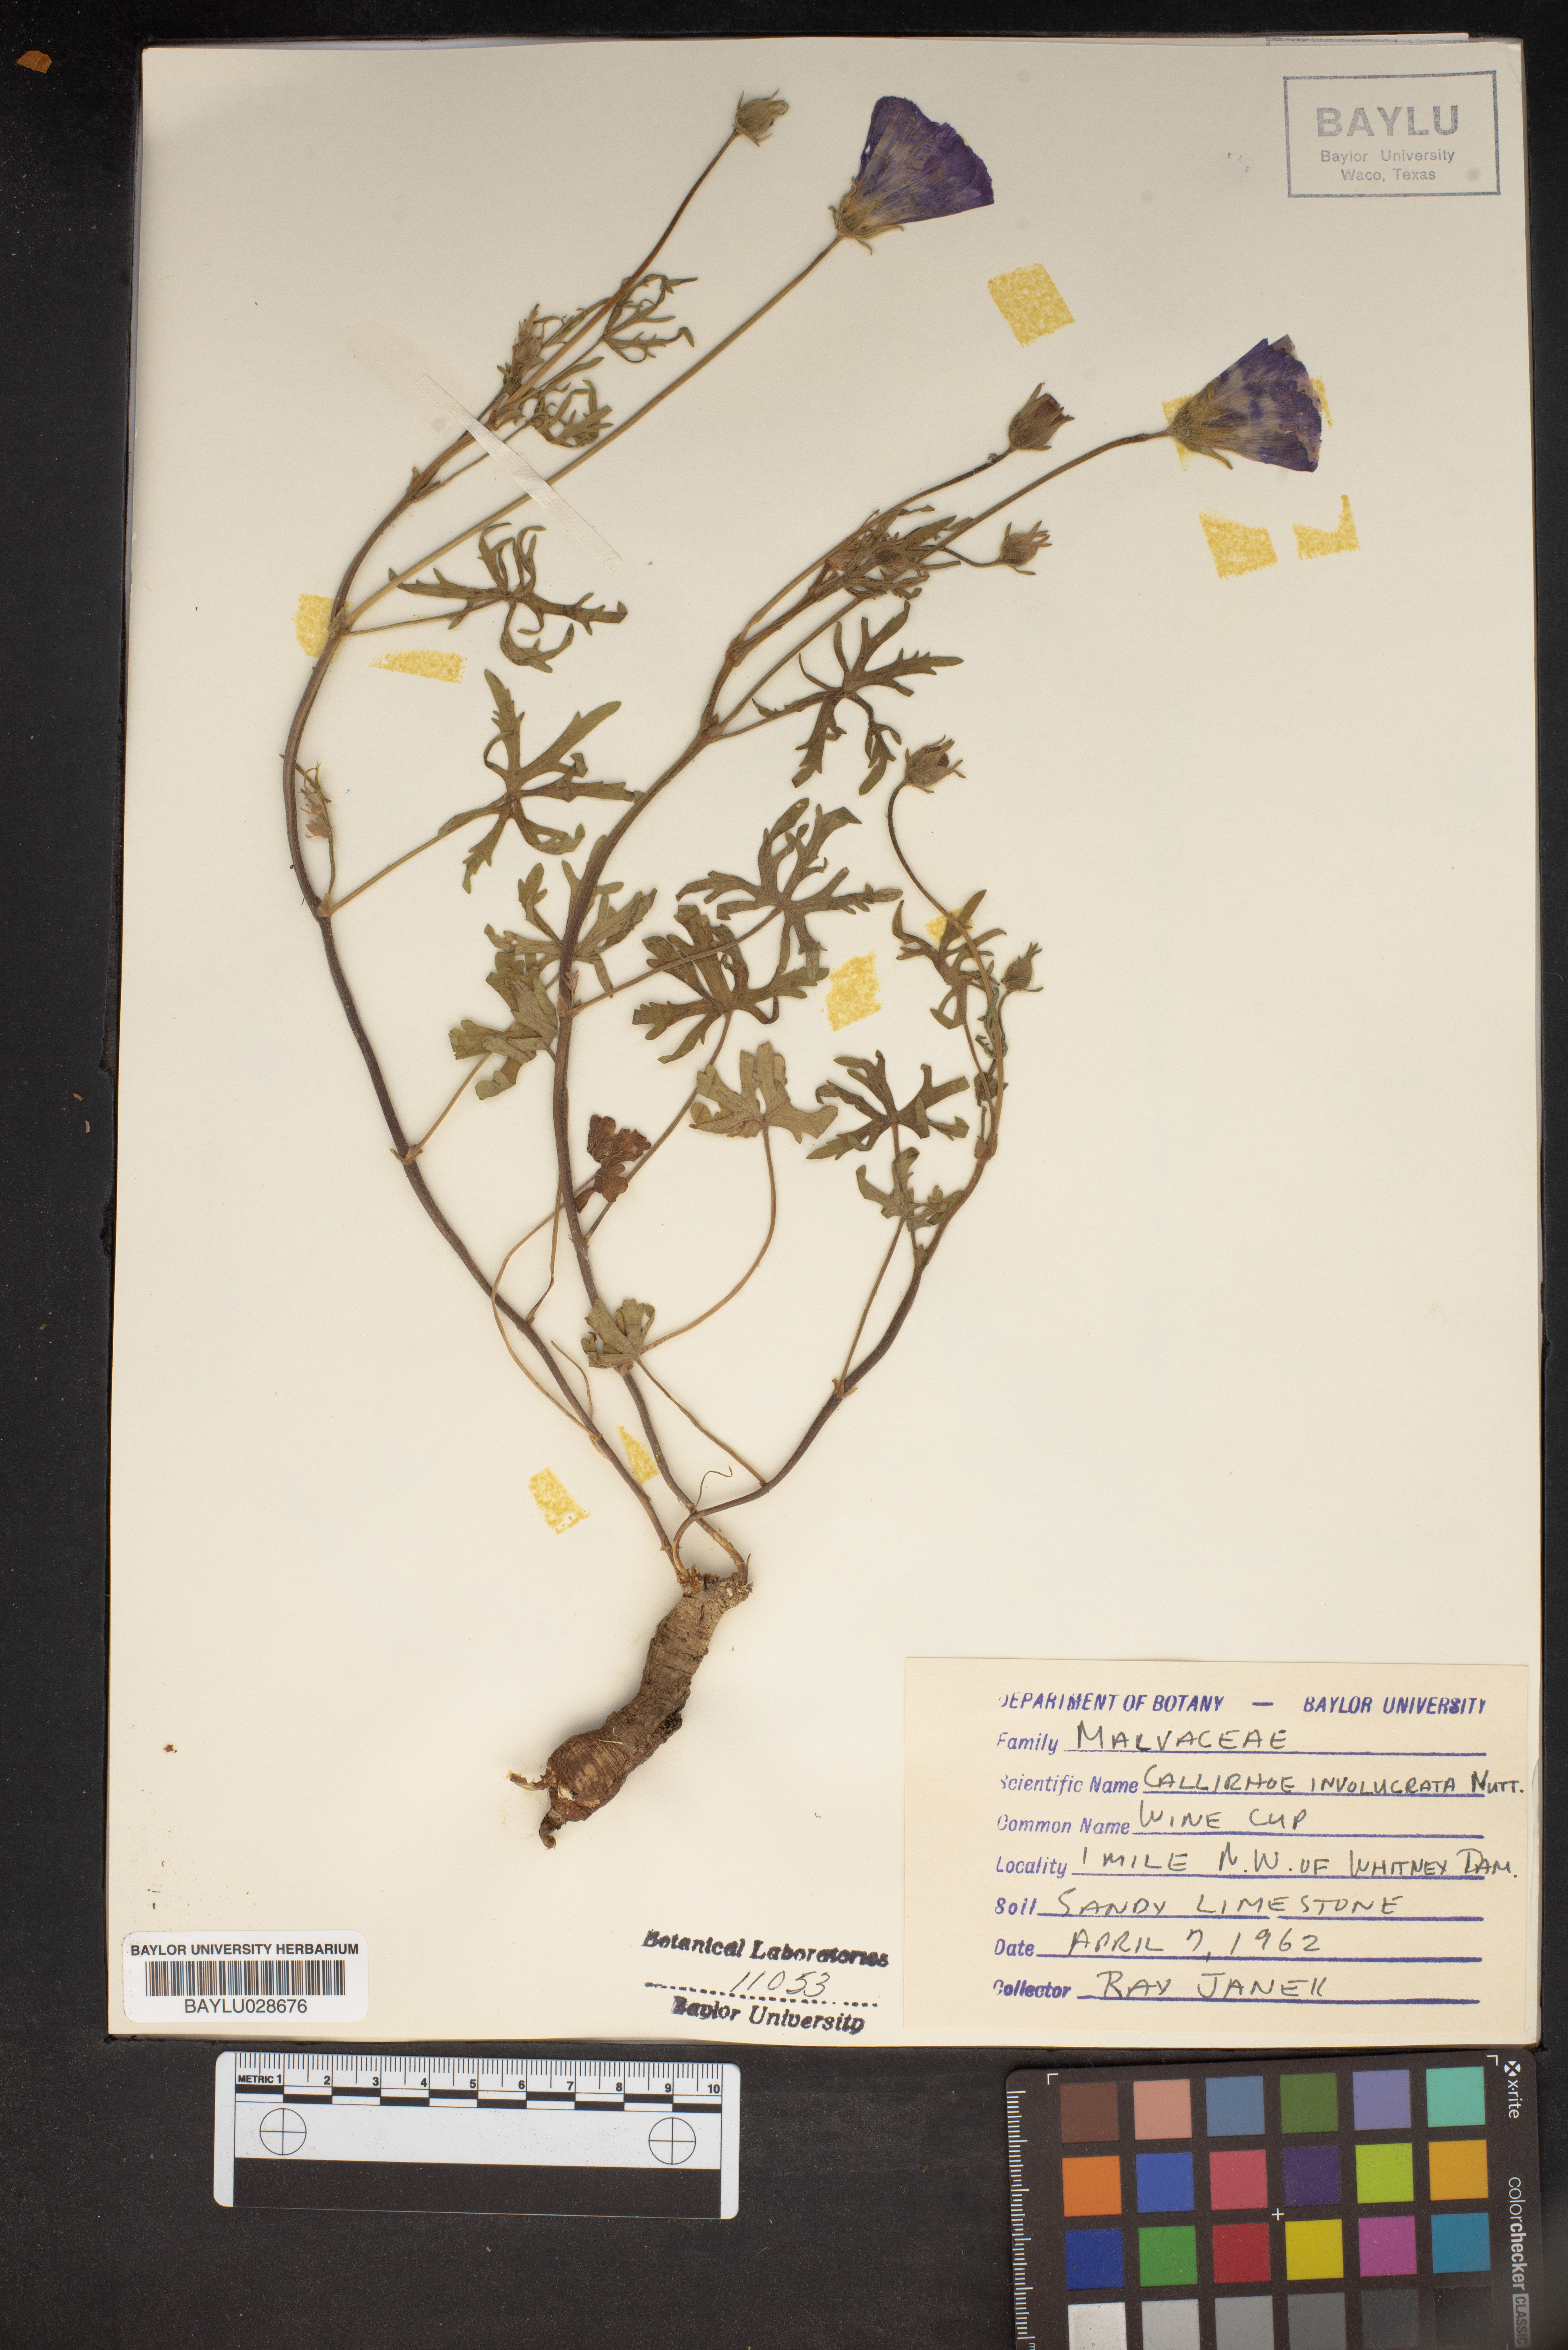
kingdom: Plantae
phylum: Tracheophyta
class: Magnoliopsida
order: Malvales
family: Malvaceae
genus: Callirhoe
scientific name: Callirhoe involucrata
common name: Purple poppy-mallow
